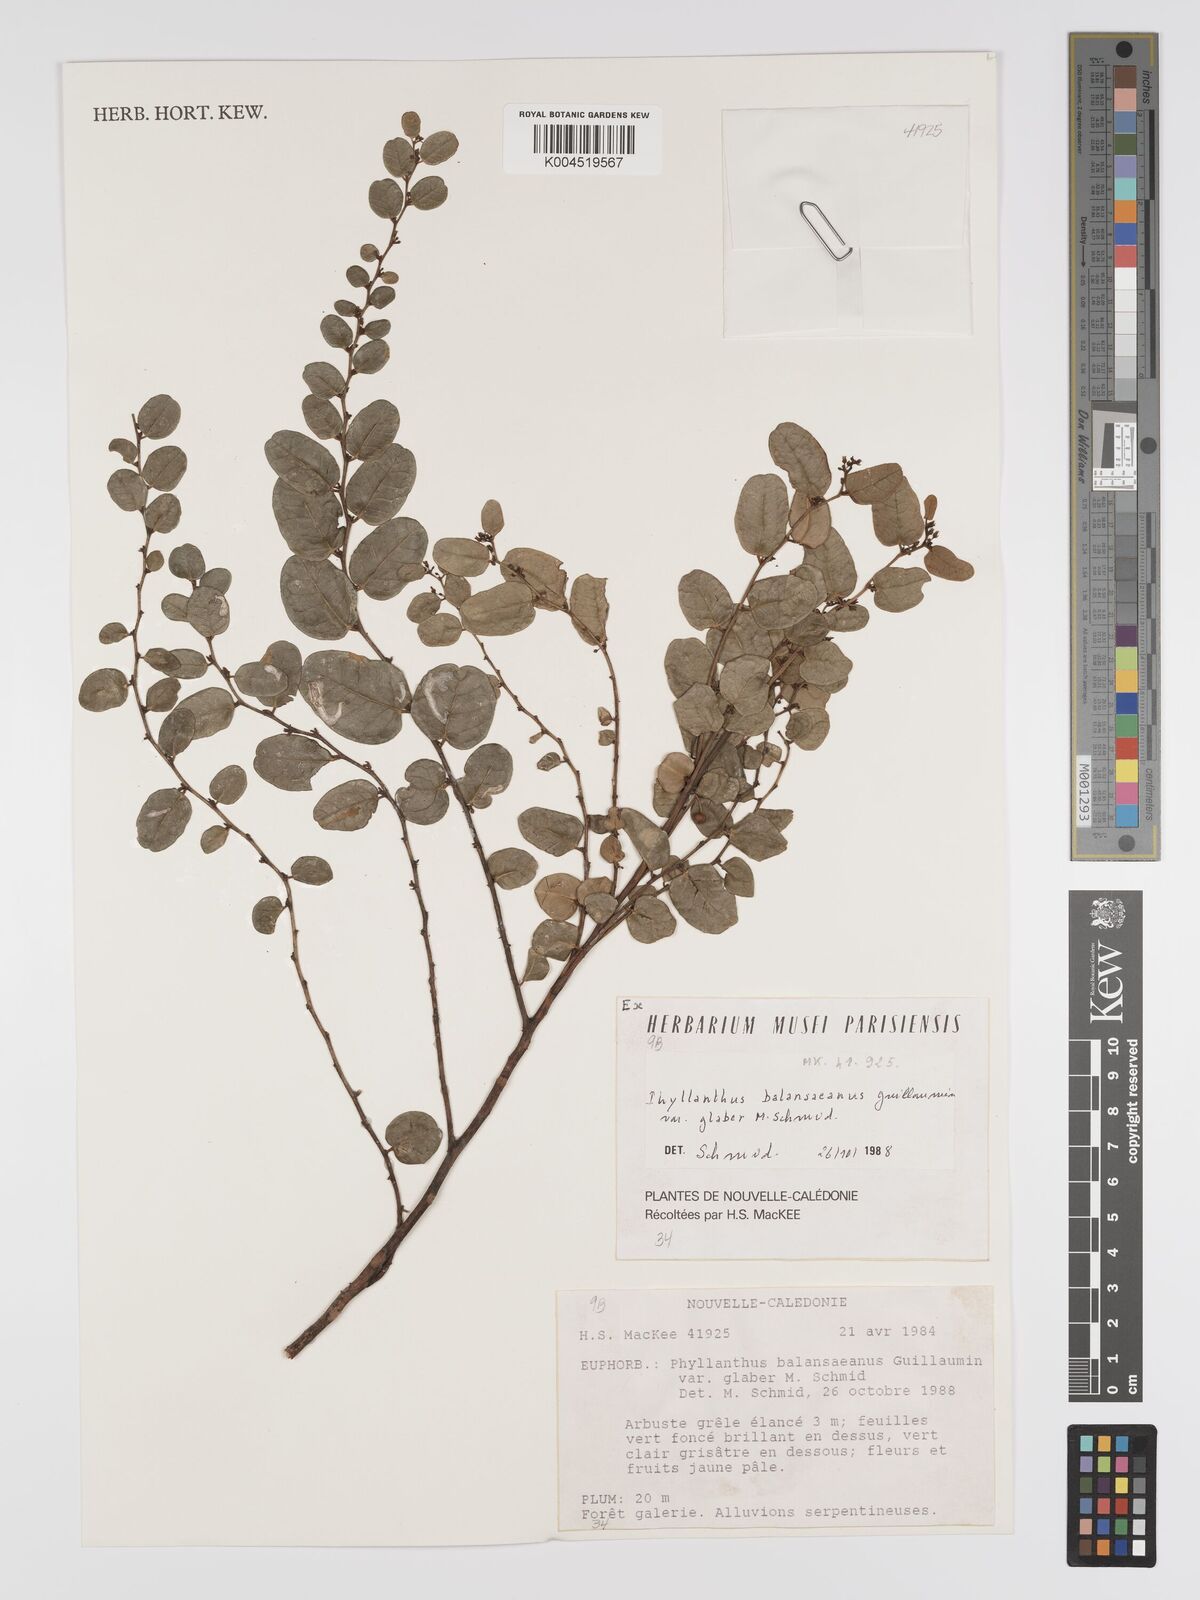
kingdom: Plantae
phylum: Tracheophyta
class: Magnoliopsida
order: Malpighiales
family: Phyllanthaceae
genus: Phyllanthus
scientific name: Phyllanthus balansanus
